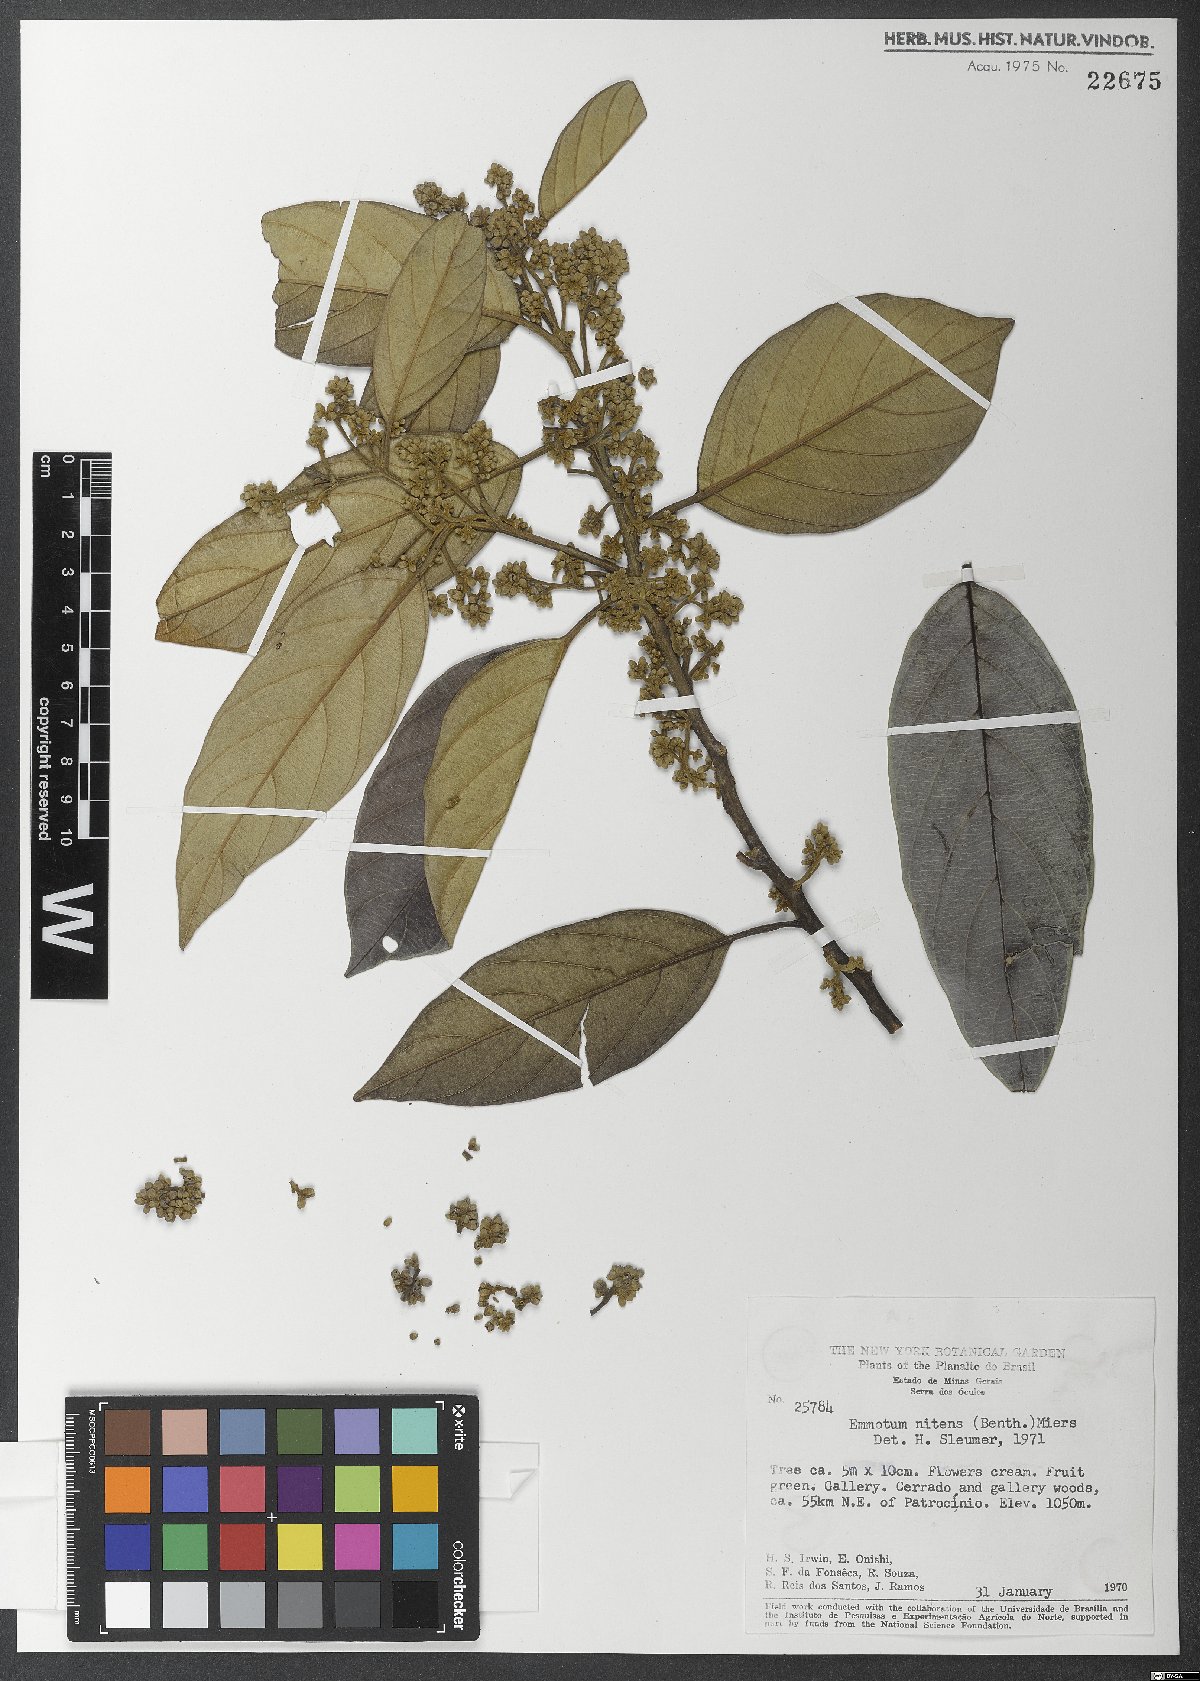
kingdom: Plantae
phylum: Tracheophyta
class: Magnoliopsida
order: Metteniusales
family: Metteniusaceae
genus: Emmotum
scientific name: Emmotum nitens
